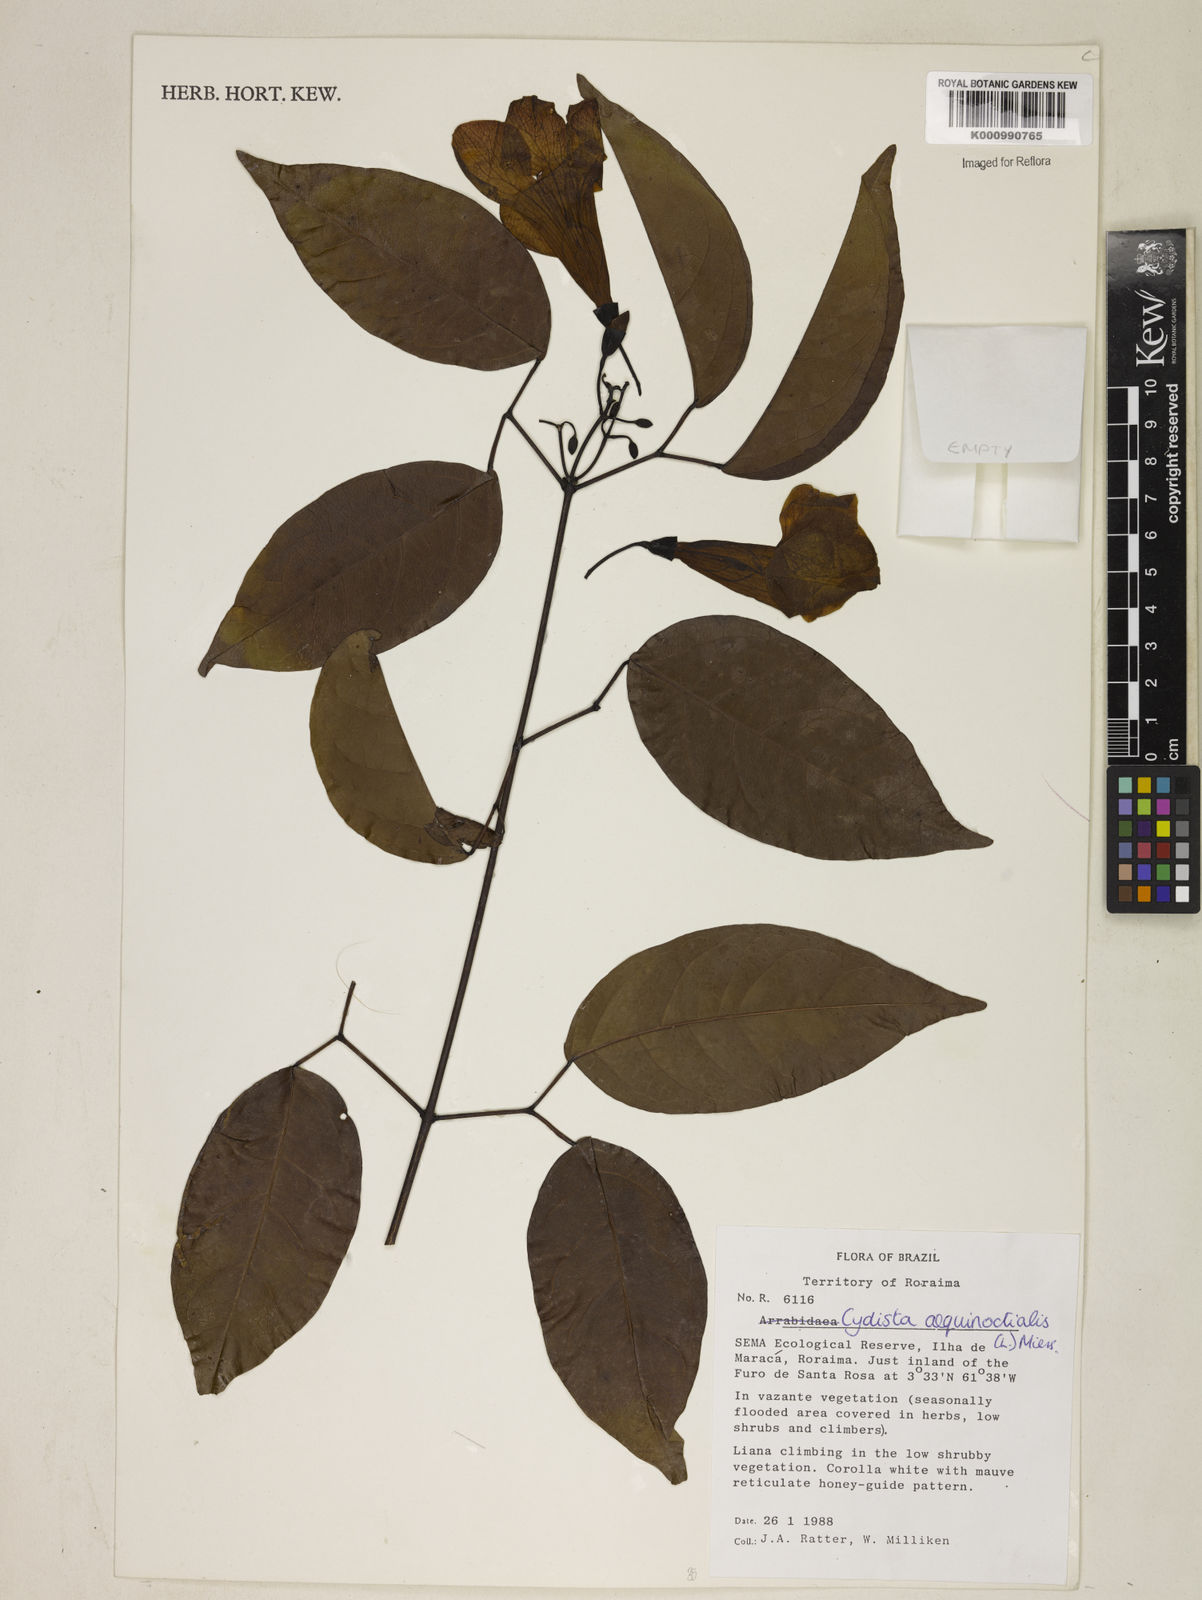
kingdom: Plantae
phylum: Tracheophyta
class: Magnoliopsida
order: Lamiales
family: Bignoniaceae
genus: Bignonia
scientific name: Bignonia aequinoctialis
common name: Garlicvine
